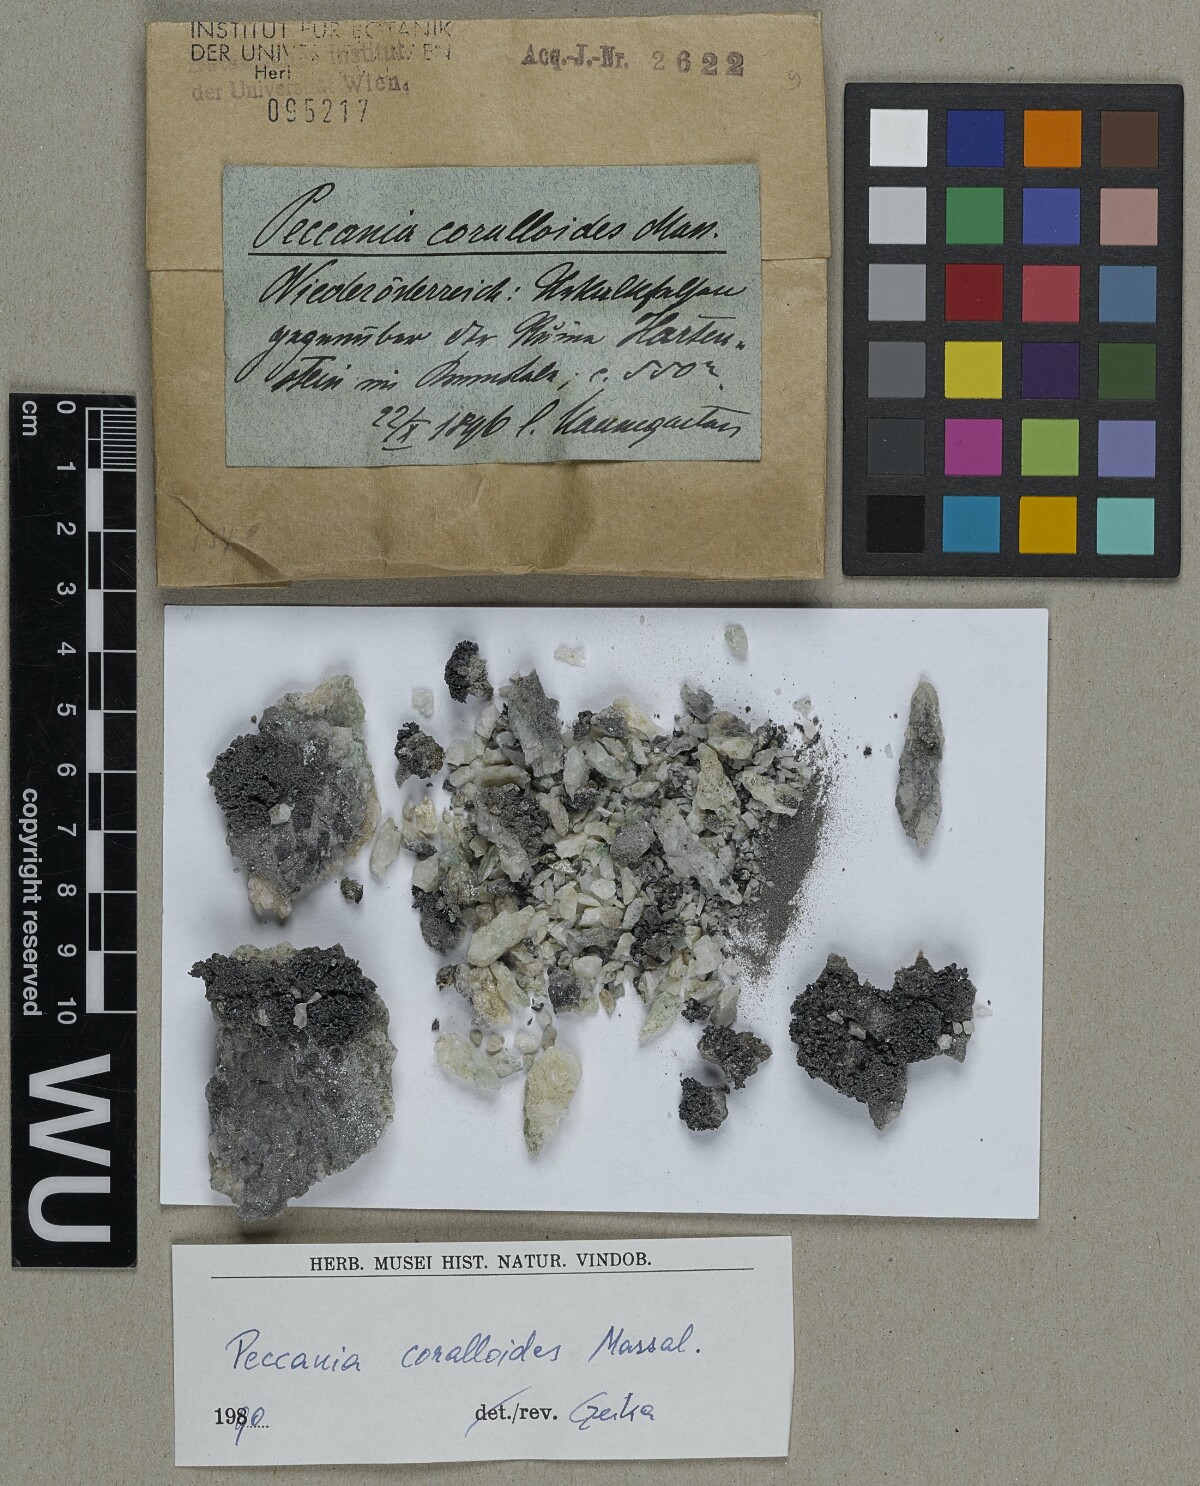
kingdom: Fungi
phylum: Ascomycota
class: Lichinomycetes
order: Lichinales
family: Lichinaceae
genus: Peccania
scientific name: Peccania coralloides
